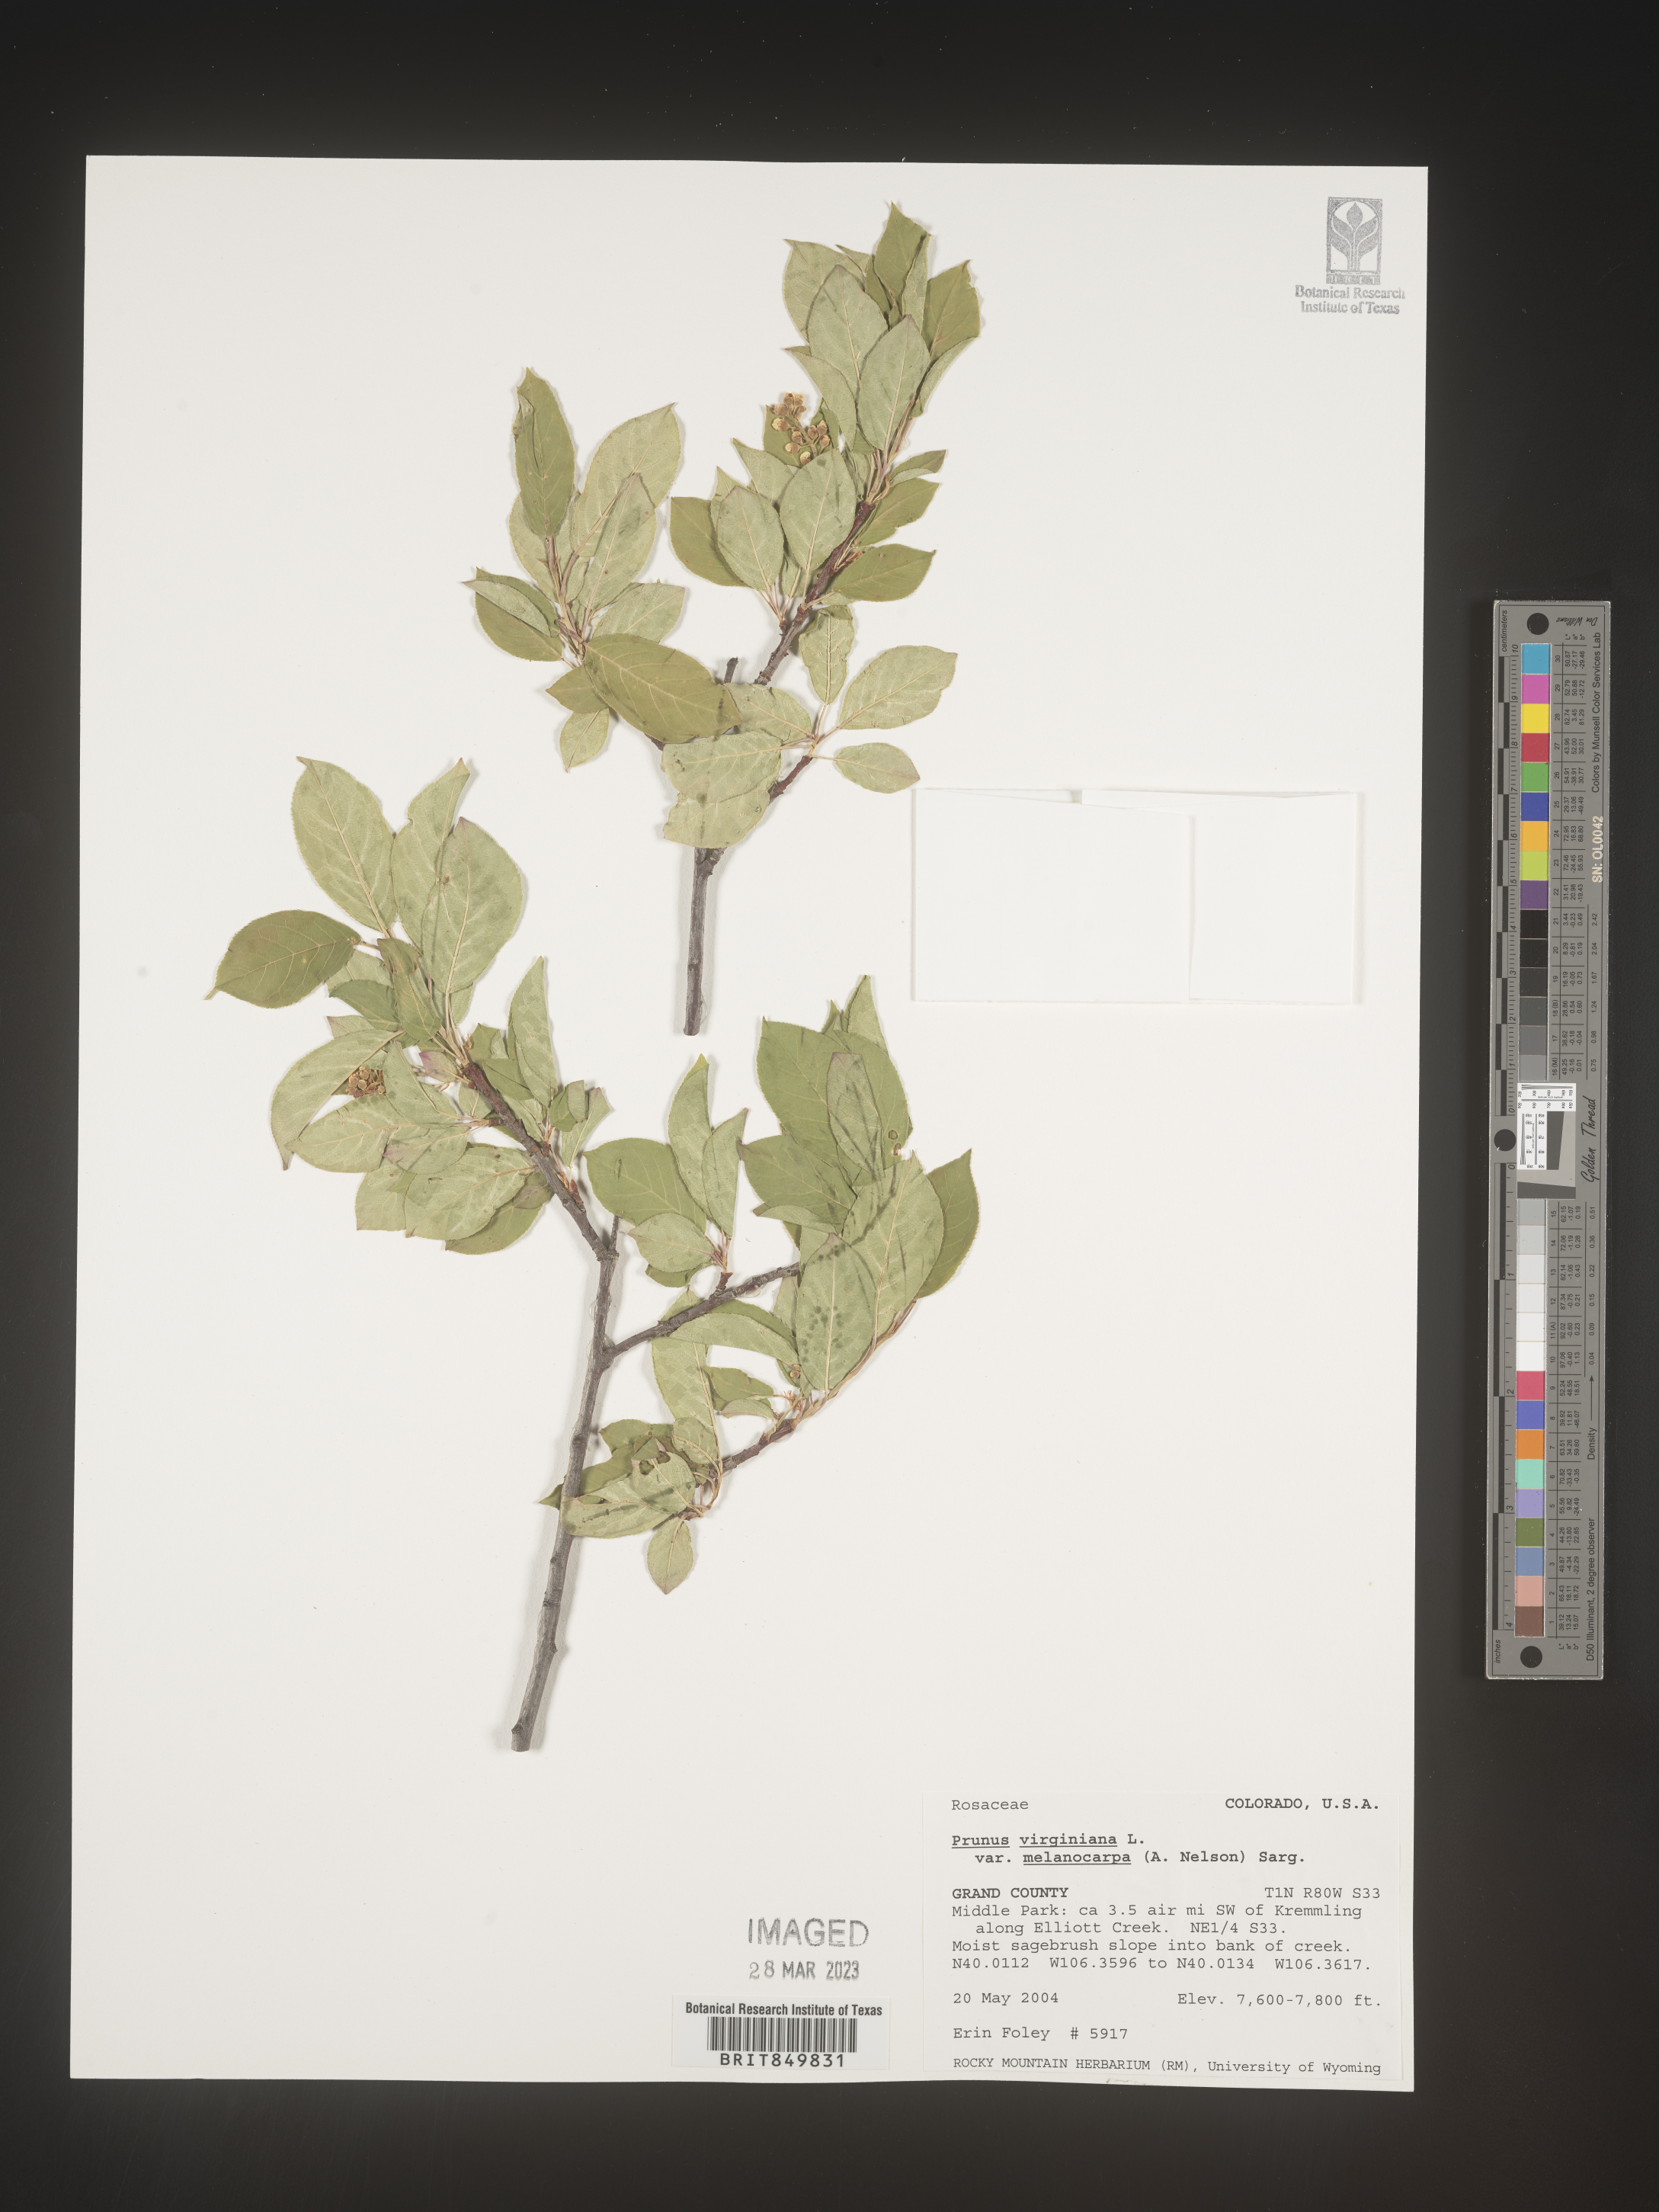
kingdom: Plantae
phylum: Tracheophyta
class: Magnoliopsida
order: Rosales
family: Rosaceae
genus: Prunus
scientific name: Prunus virginiana
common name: Chokecherry
